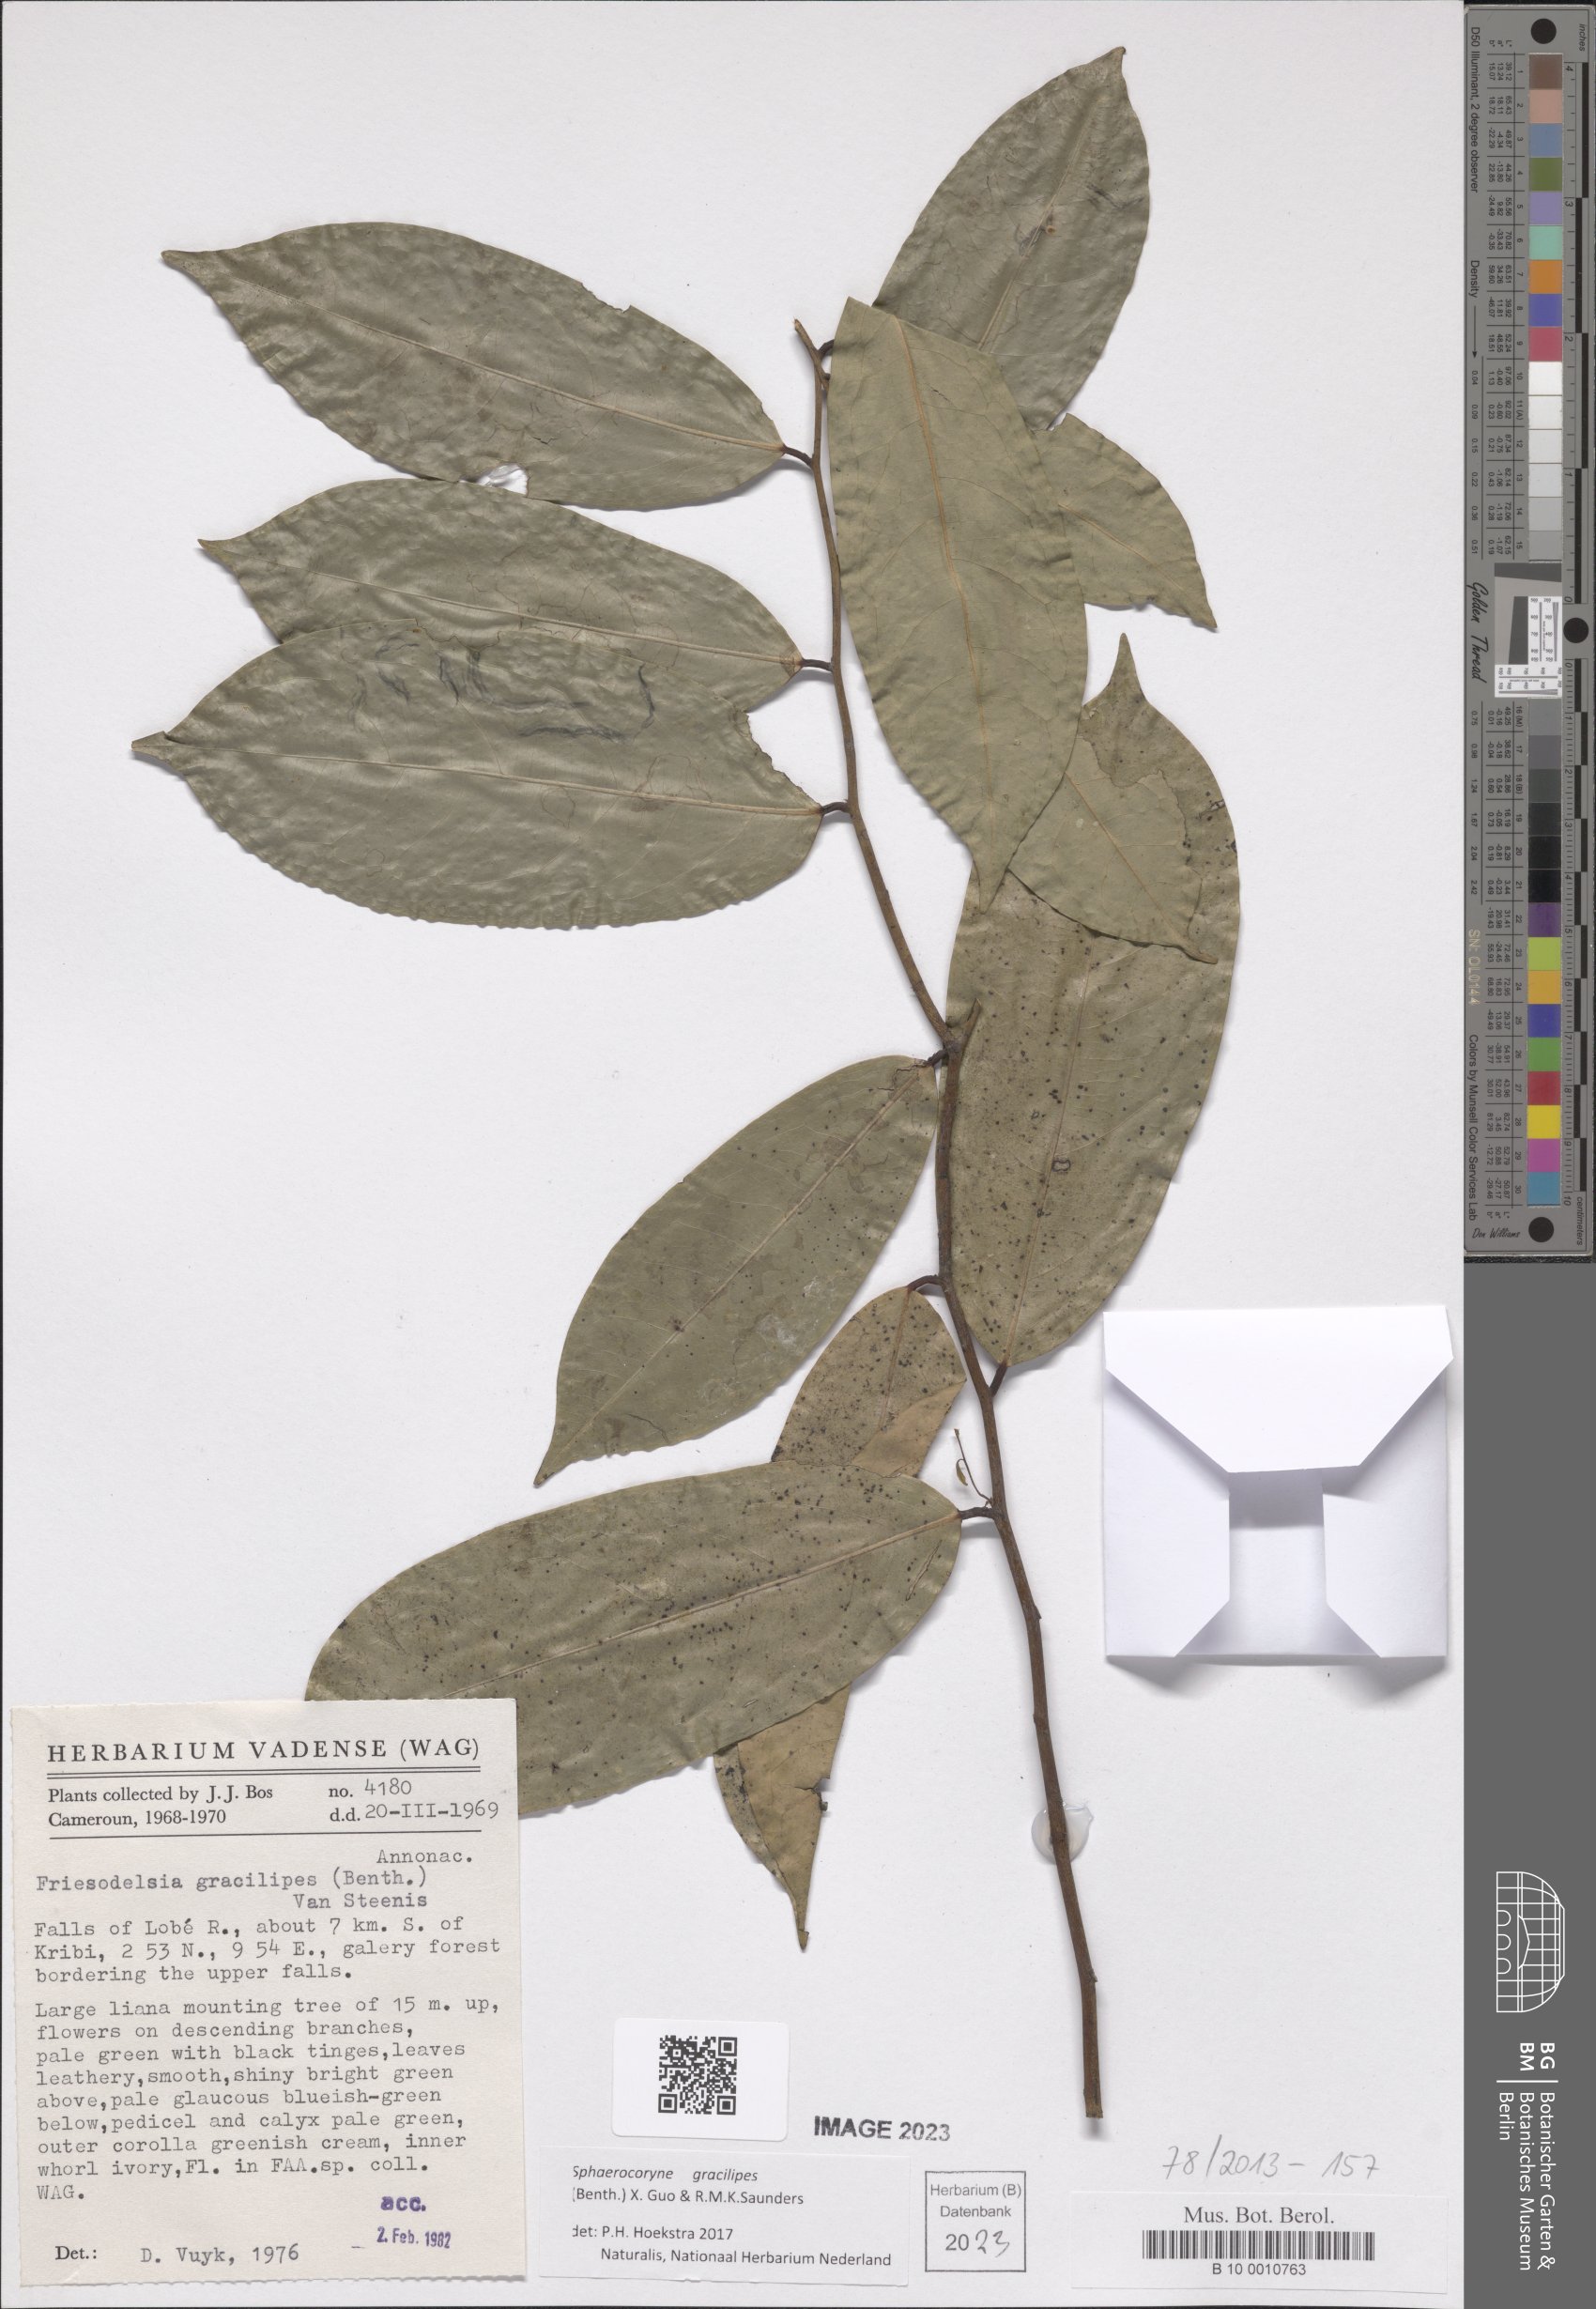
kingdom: Plantae
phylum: Tracheophyta
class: Magnoliopsida
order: Magnoliales
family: Annonaceae
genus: Friesodielsia
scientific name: Friesodielsia gracilipes
